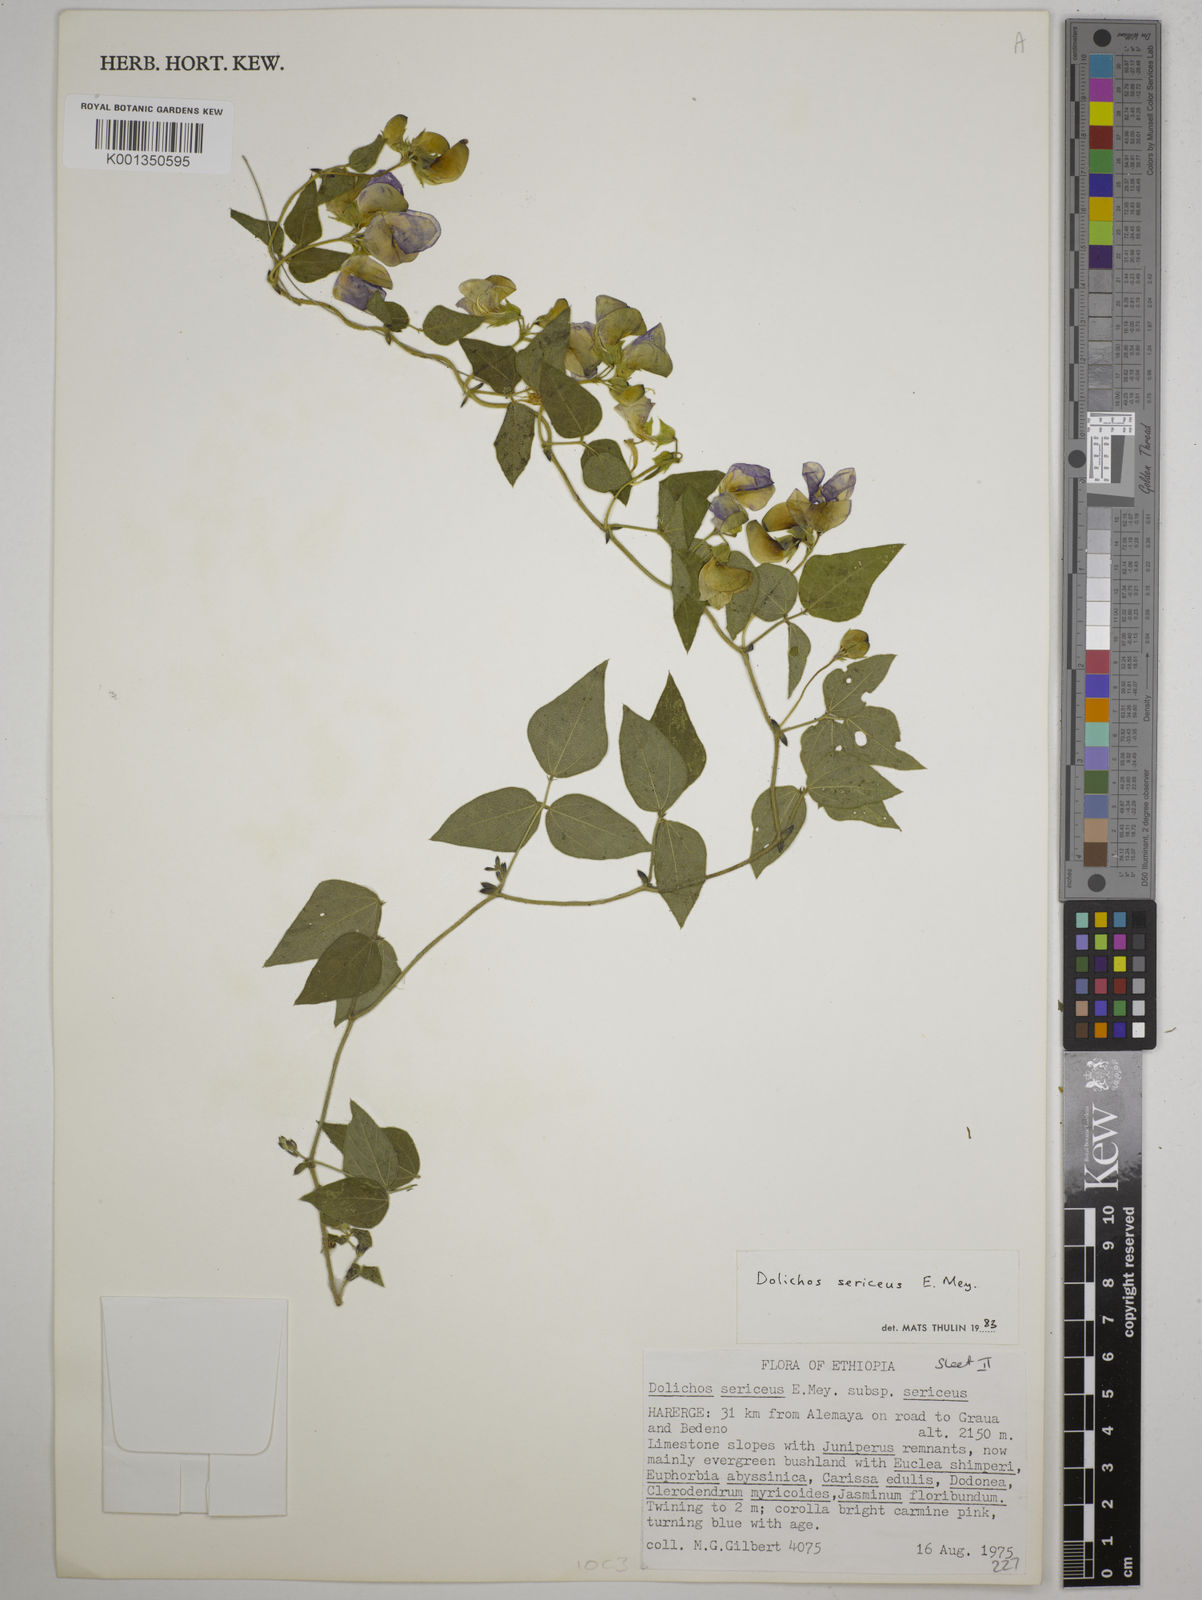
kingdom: Plantae
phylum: Tracheophyta
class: Magnoliopsida
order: Fabales
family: Fabaceae
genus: Dolichos
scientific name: Dolichos sericeus
